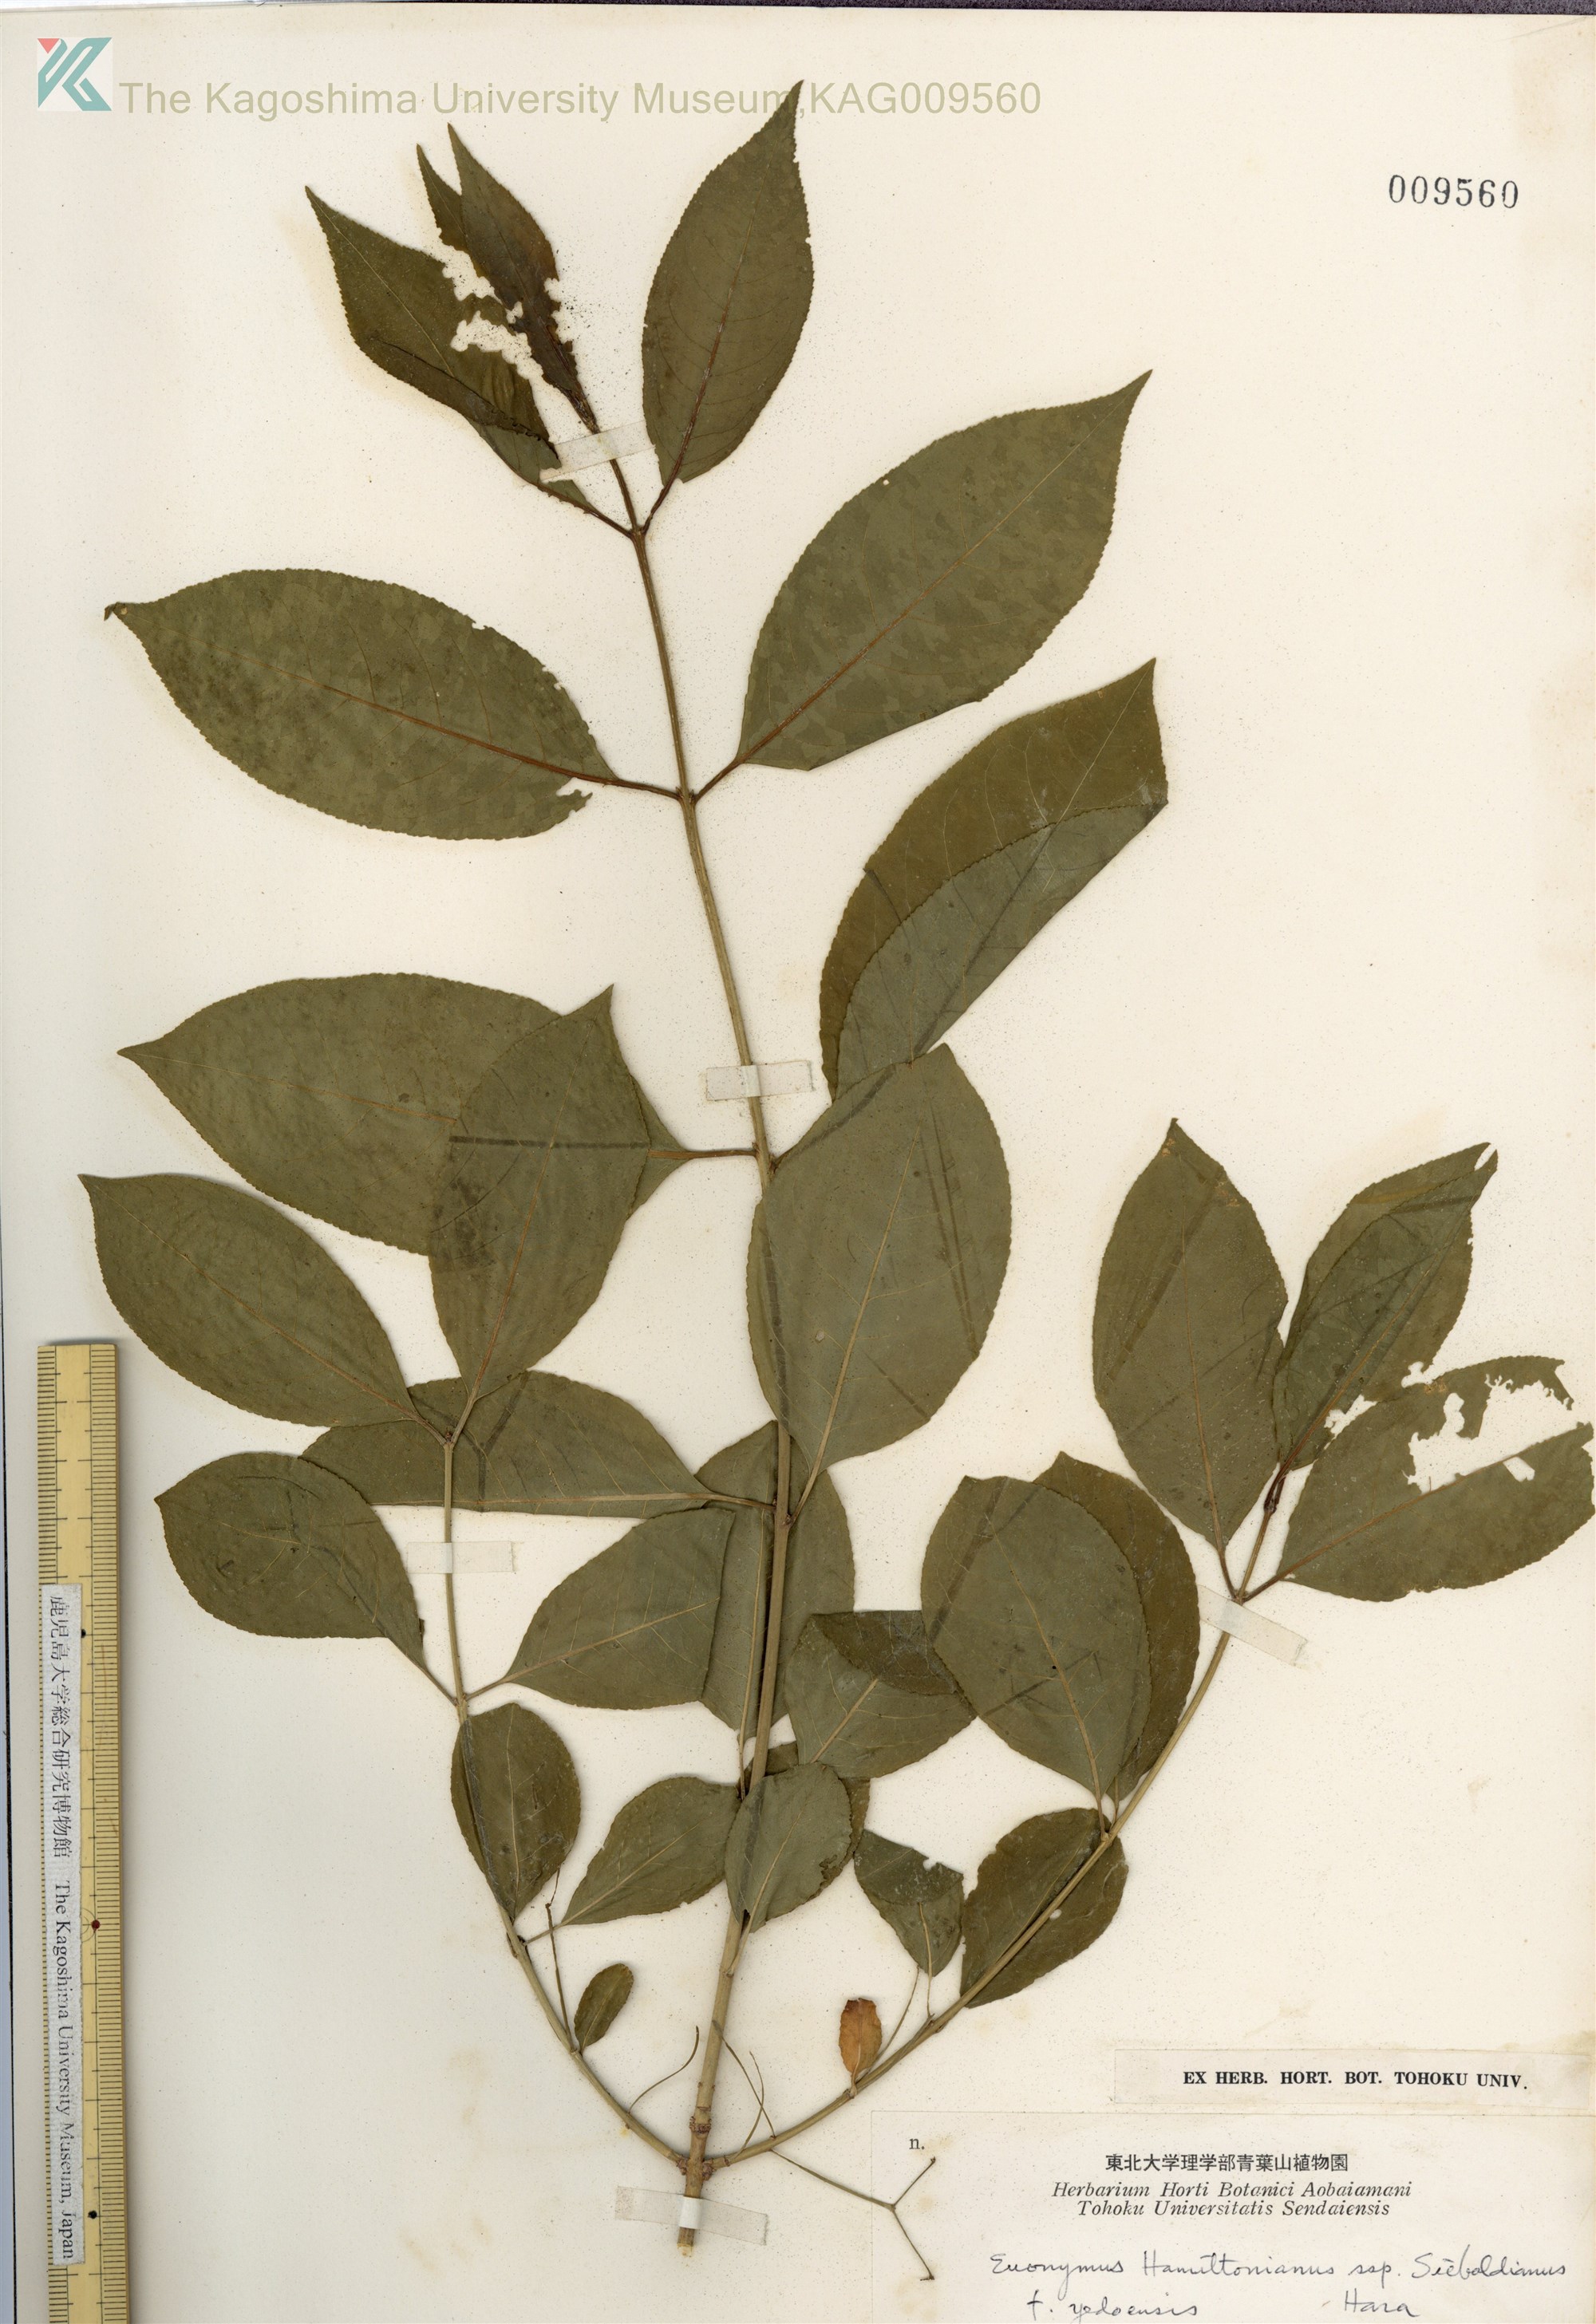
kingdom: Plantae
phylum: Tracheophyta
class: Magnoliopsida
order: Celastrales
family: Celastraceae
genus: Euonymus
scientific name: Euonymus hamiltonianus
